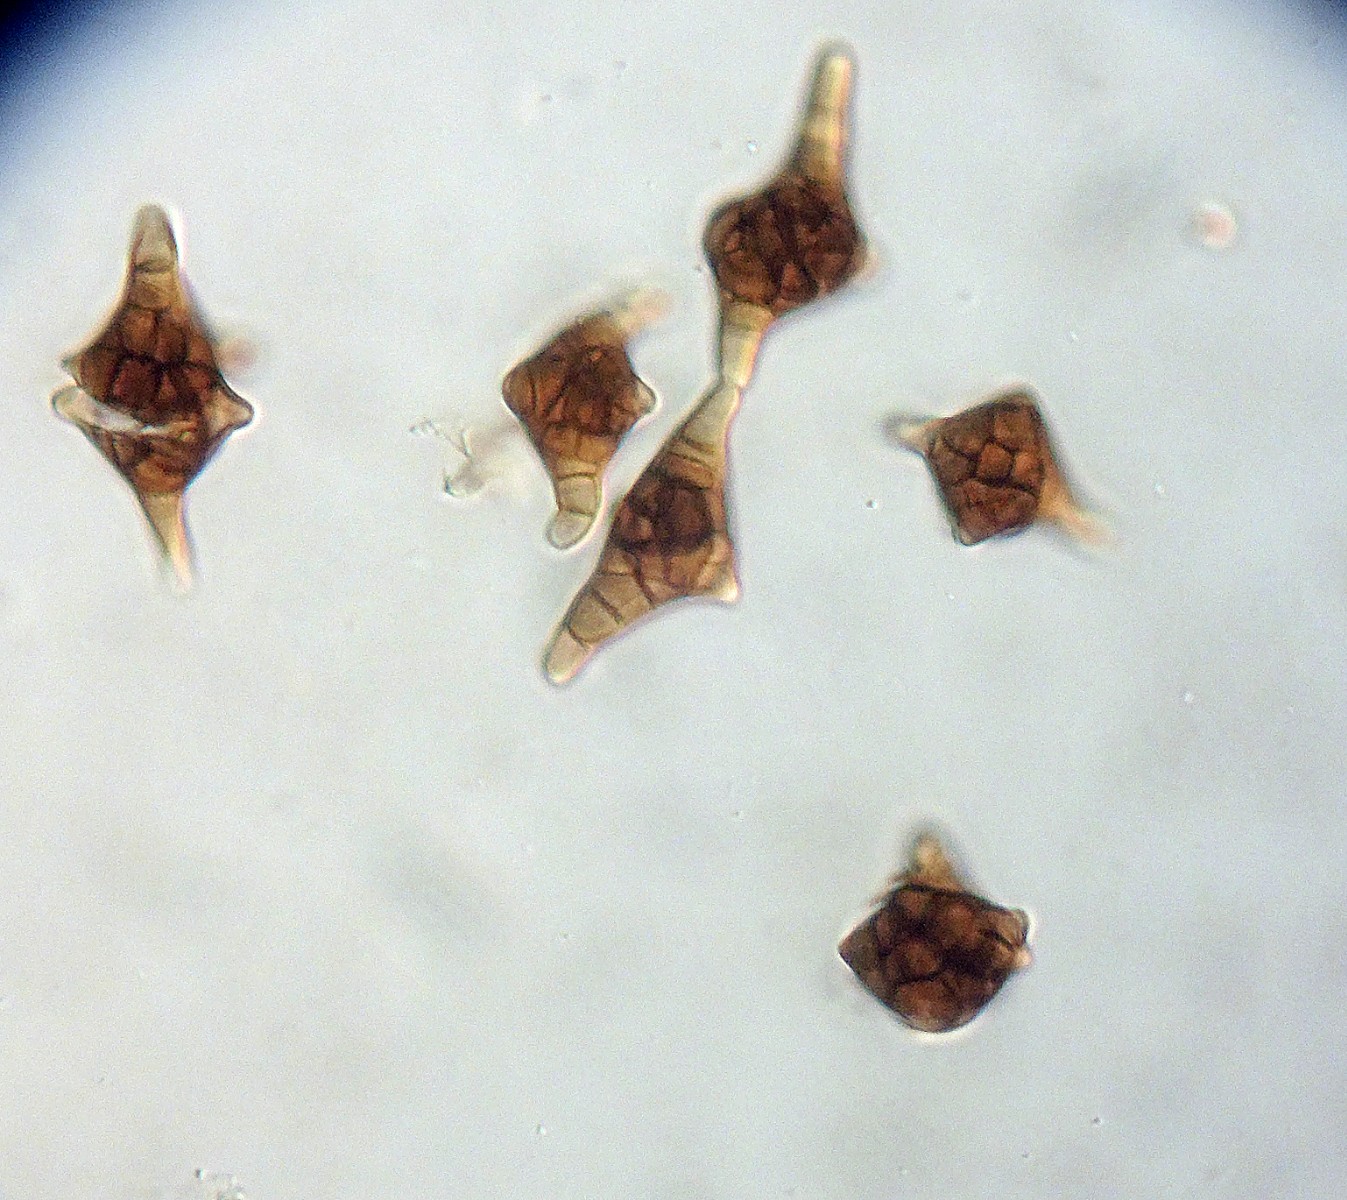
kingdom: Fungi
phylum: Ascomycota
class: Dothideomycetes
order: Pleosporales
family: Melanommataceae
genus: Phragmotrichum
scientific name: Phragmotrichum chailletii
